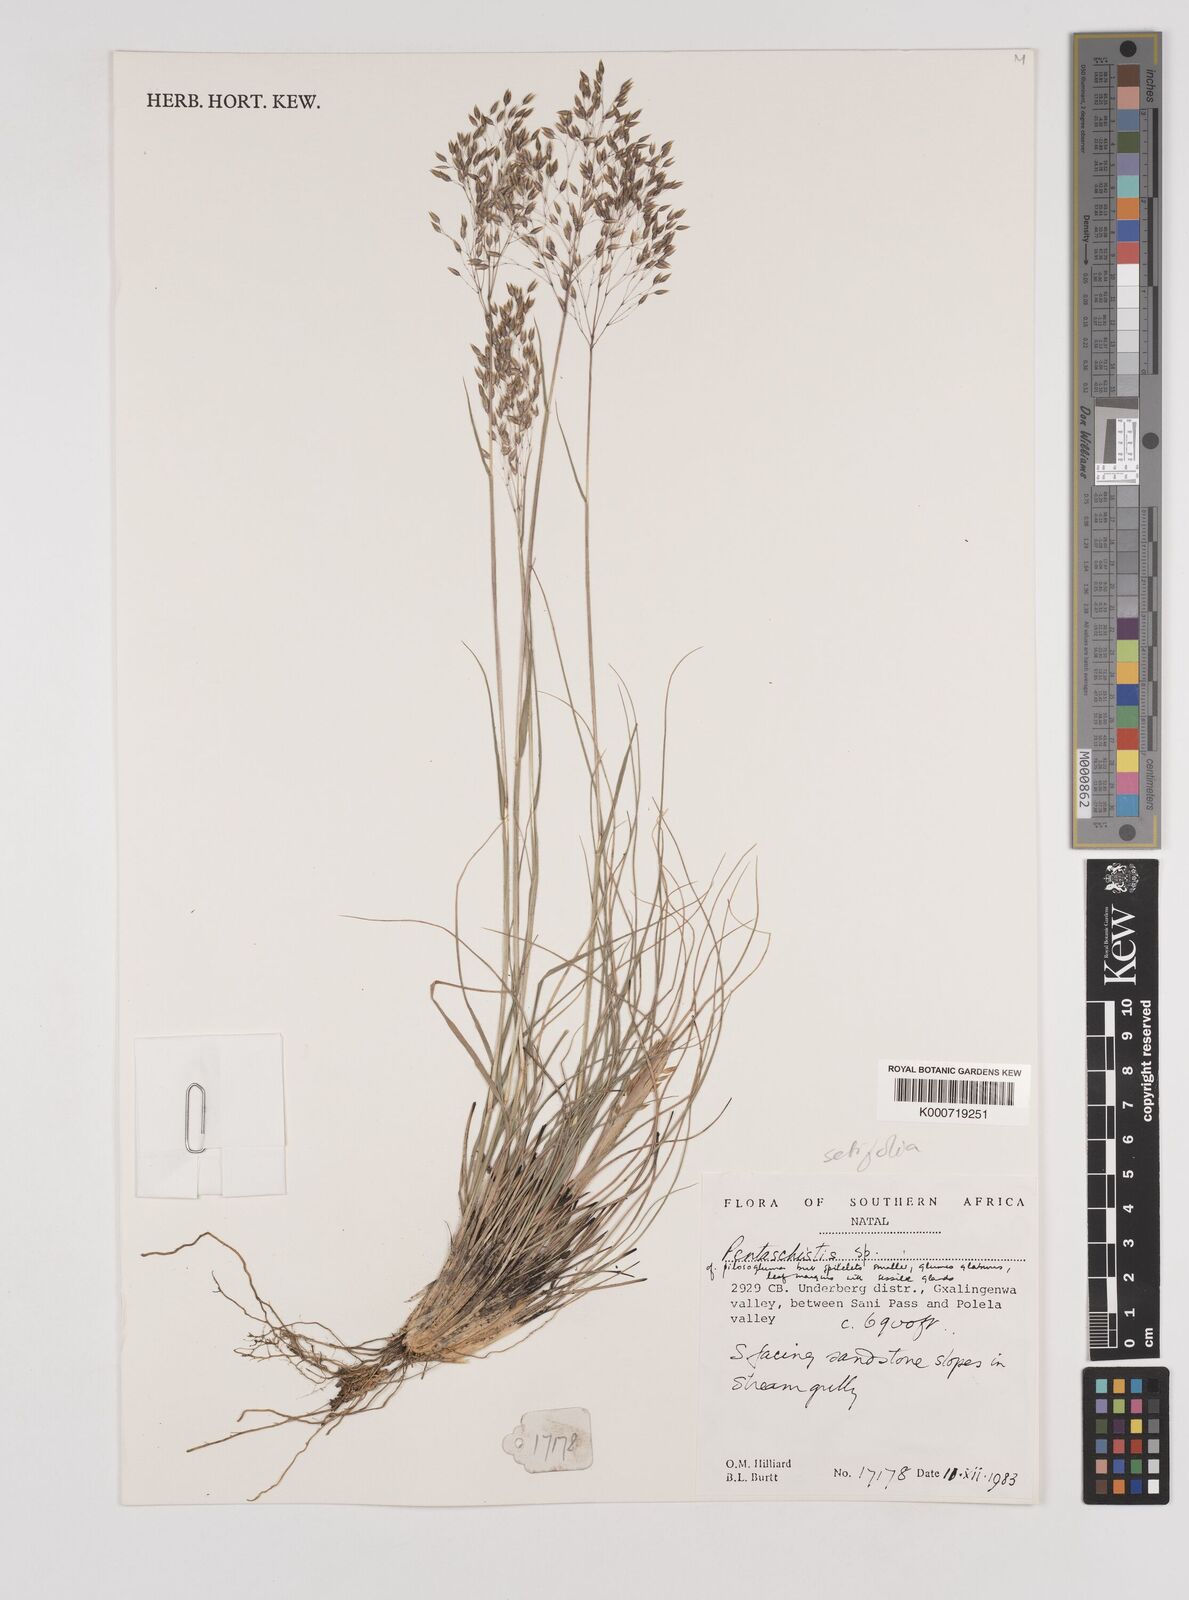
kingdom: Plantae
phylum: Tracheophyta
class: Liliopsida
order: Poales
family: Poaceae
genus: Pentameris
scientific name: Pentameris setifolia
